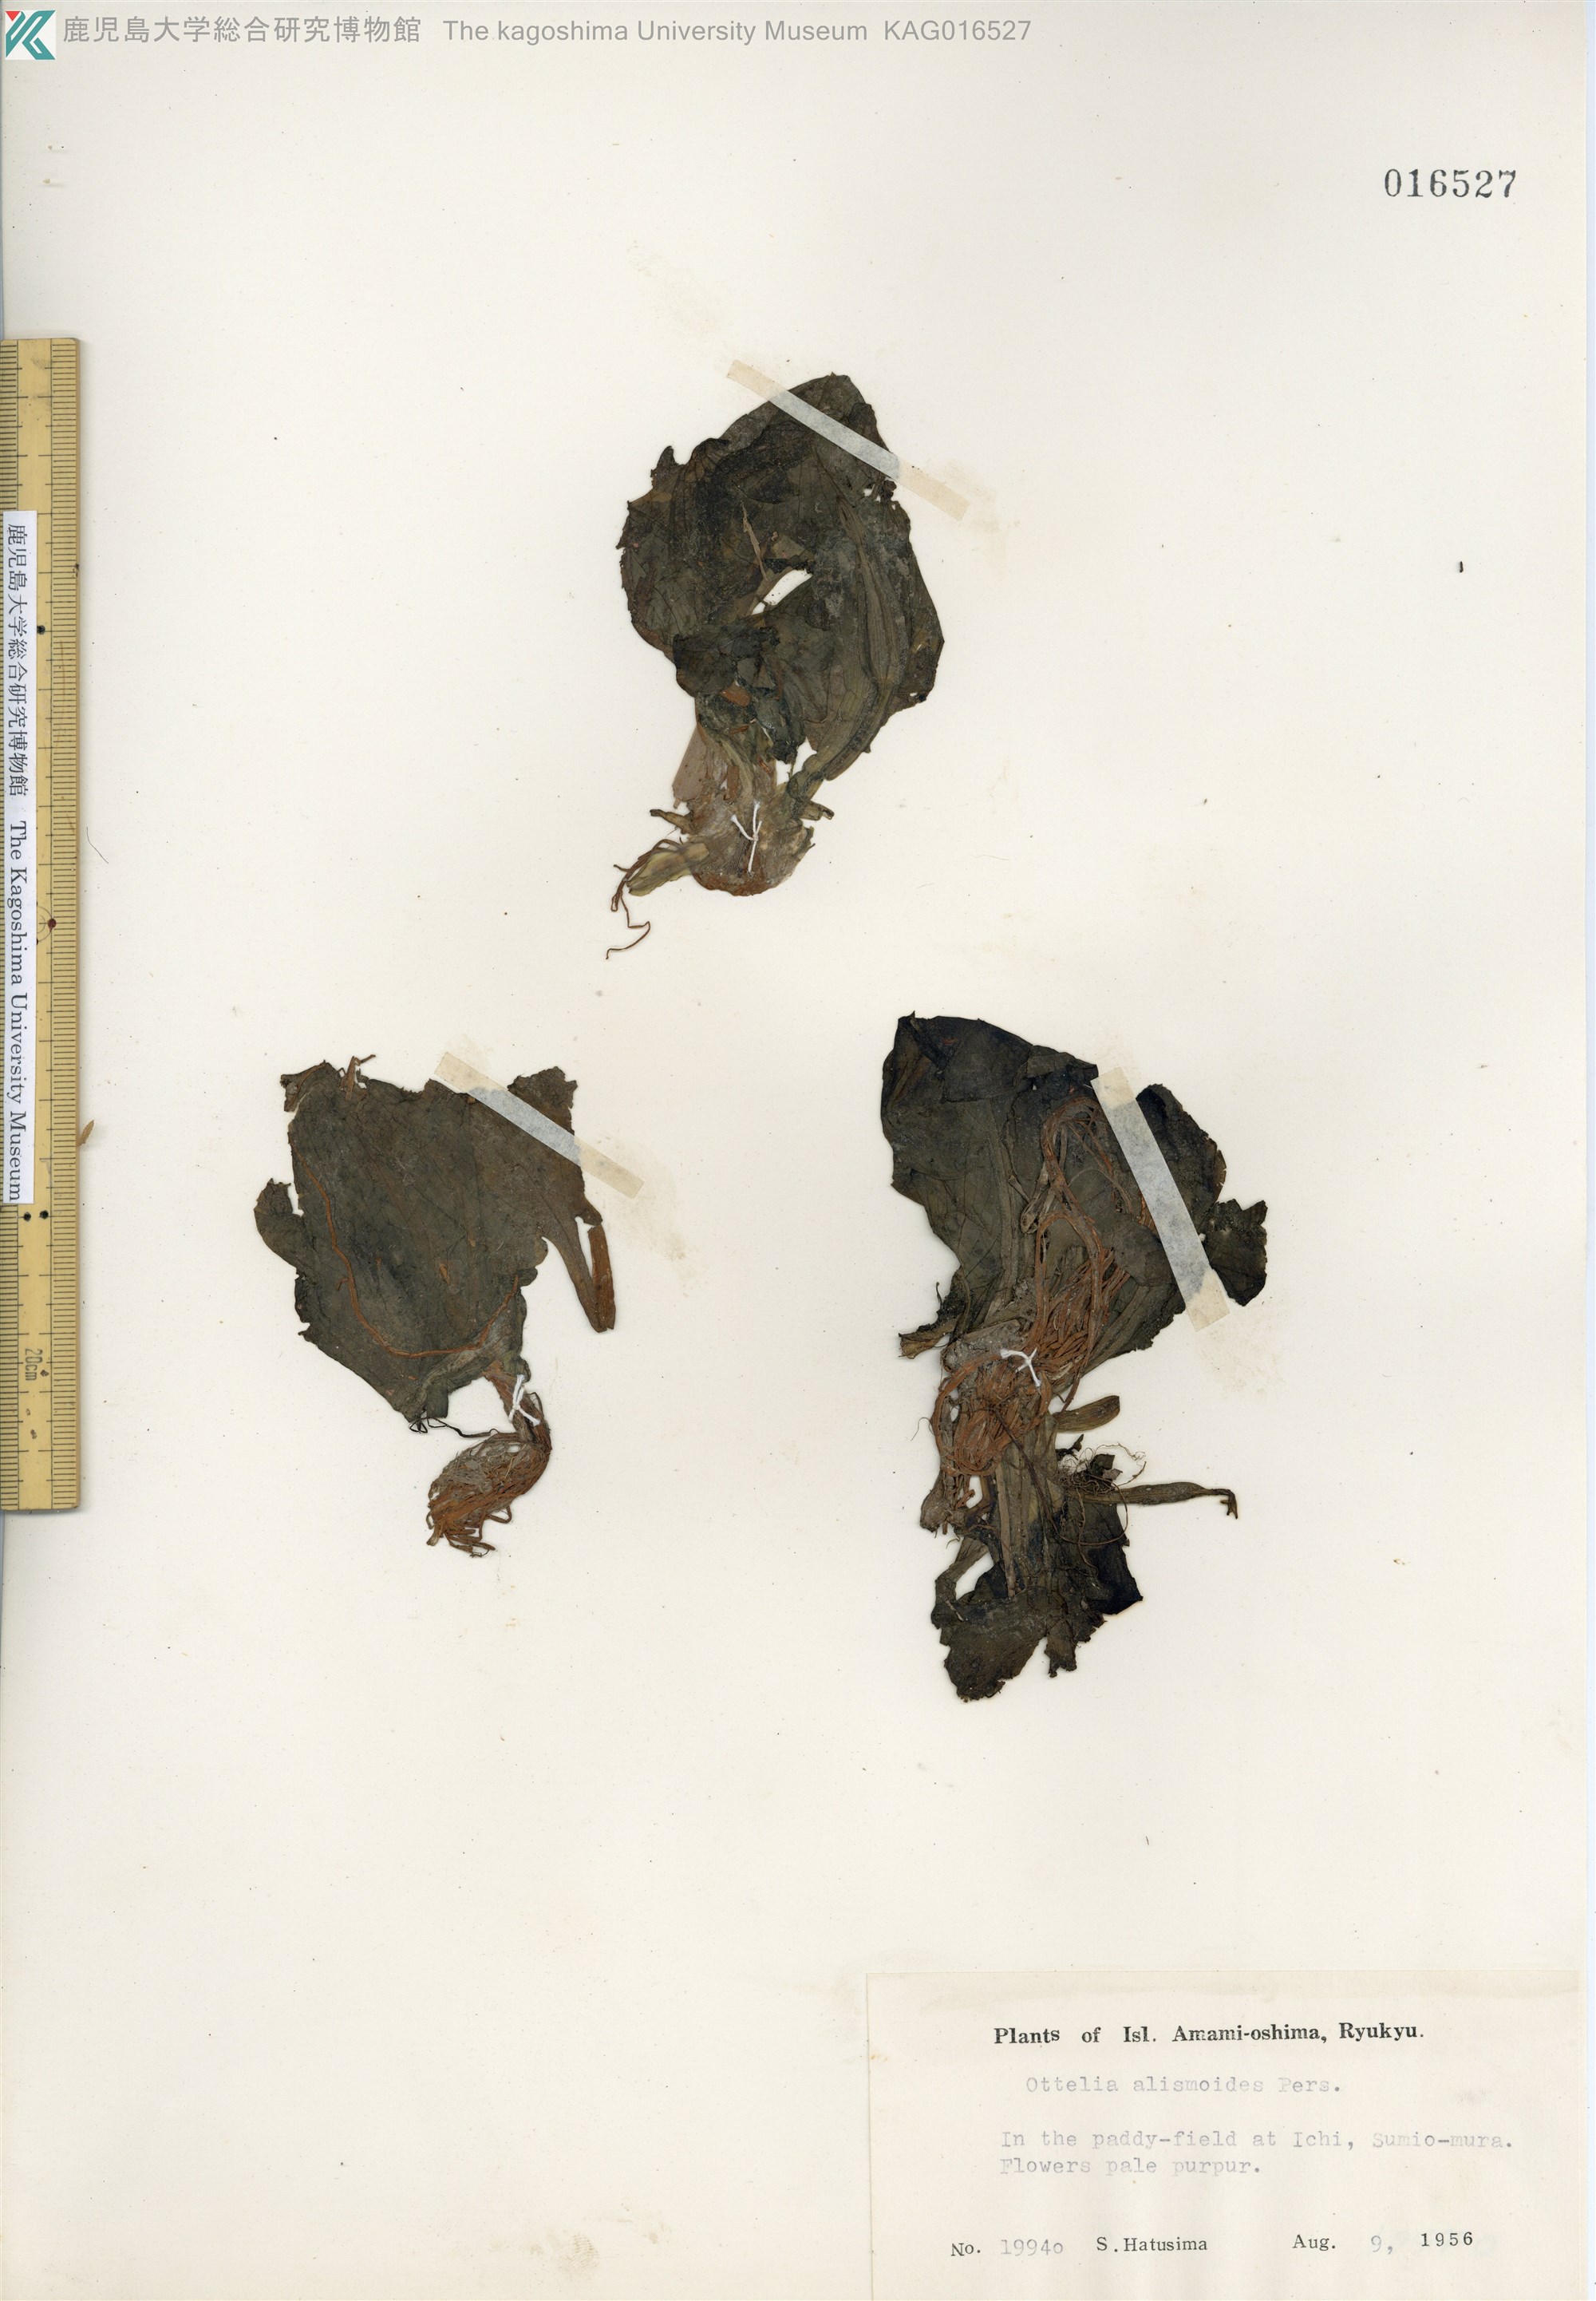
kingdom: Plantae
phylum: Tracheophyta
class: Liliopsida
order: Alismatales
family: Hydrocharitaceae
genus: Ottelia
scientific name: Ottelia alismoides
